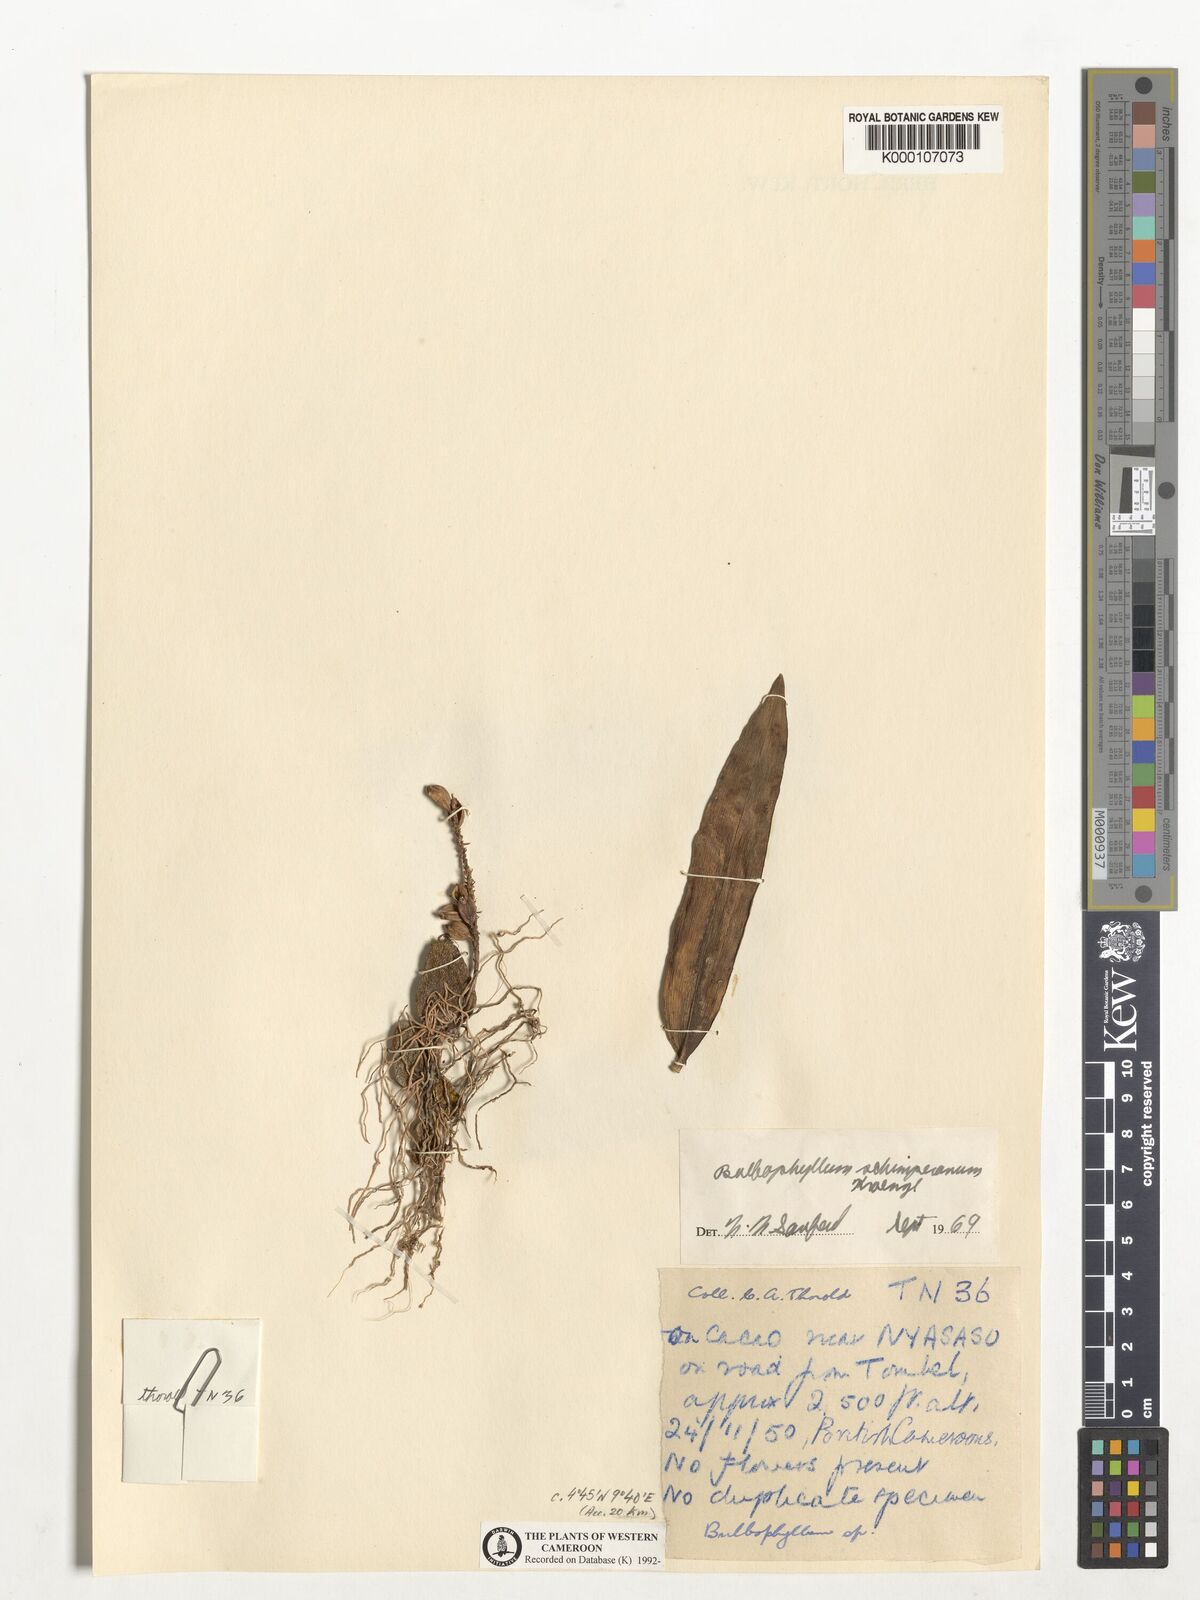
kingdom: Plantae
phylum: Tracheophyta
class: Liliopsida
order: Asparagales
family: Orchidaceae
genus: Bulbophyllum
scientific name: Bulbophyllum schimperianum
